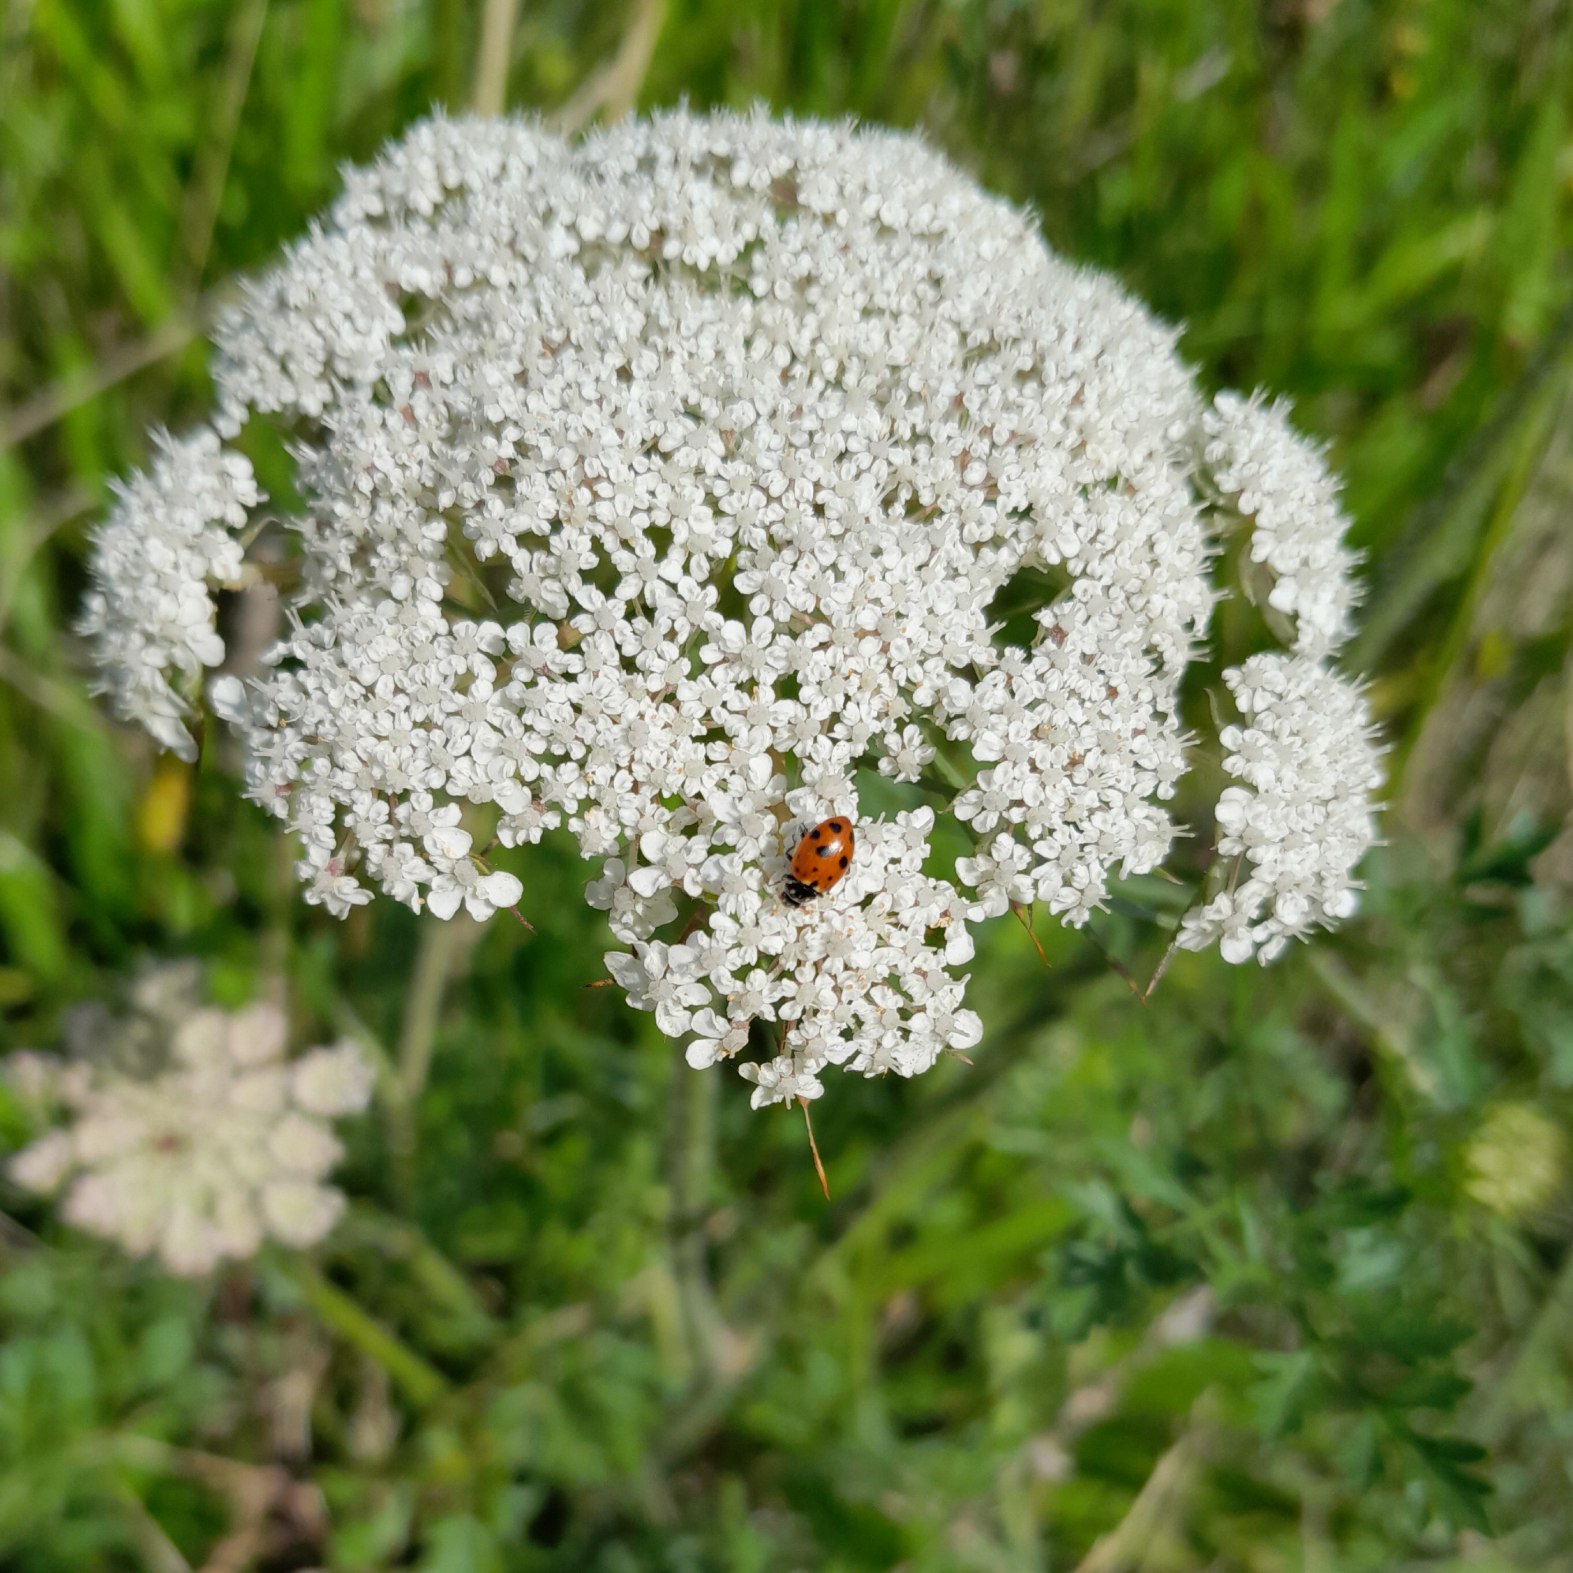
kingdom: Animalia
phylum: Arthropoda
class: Insecta
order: Coleoptera
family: Coccinellidae
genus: Hippodamia
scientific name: Hippodamia variegata
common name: Adonis' mariehøne
